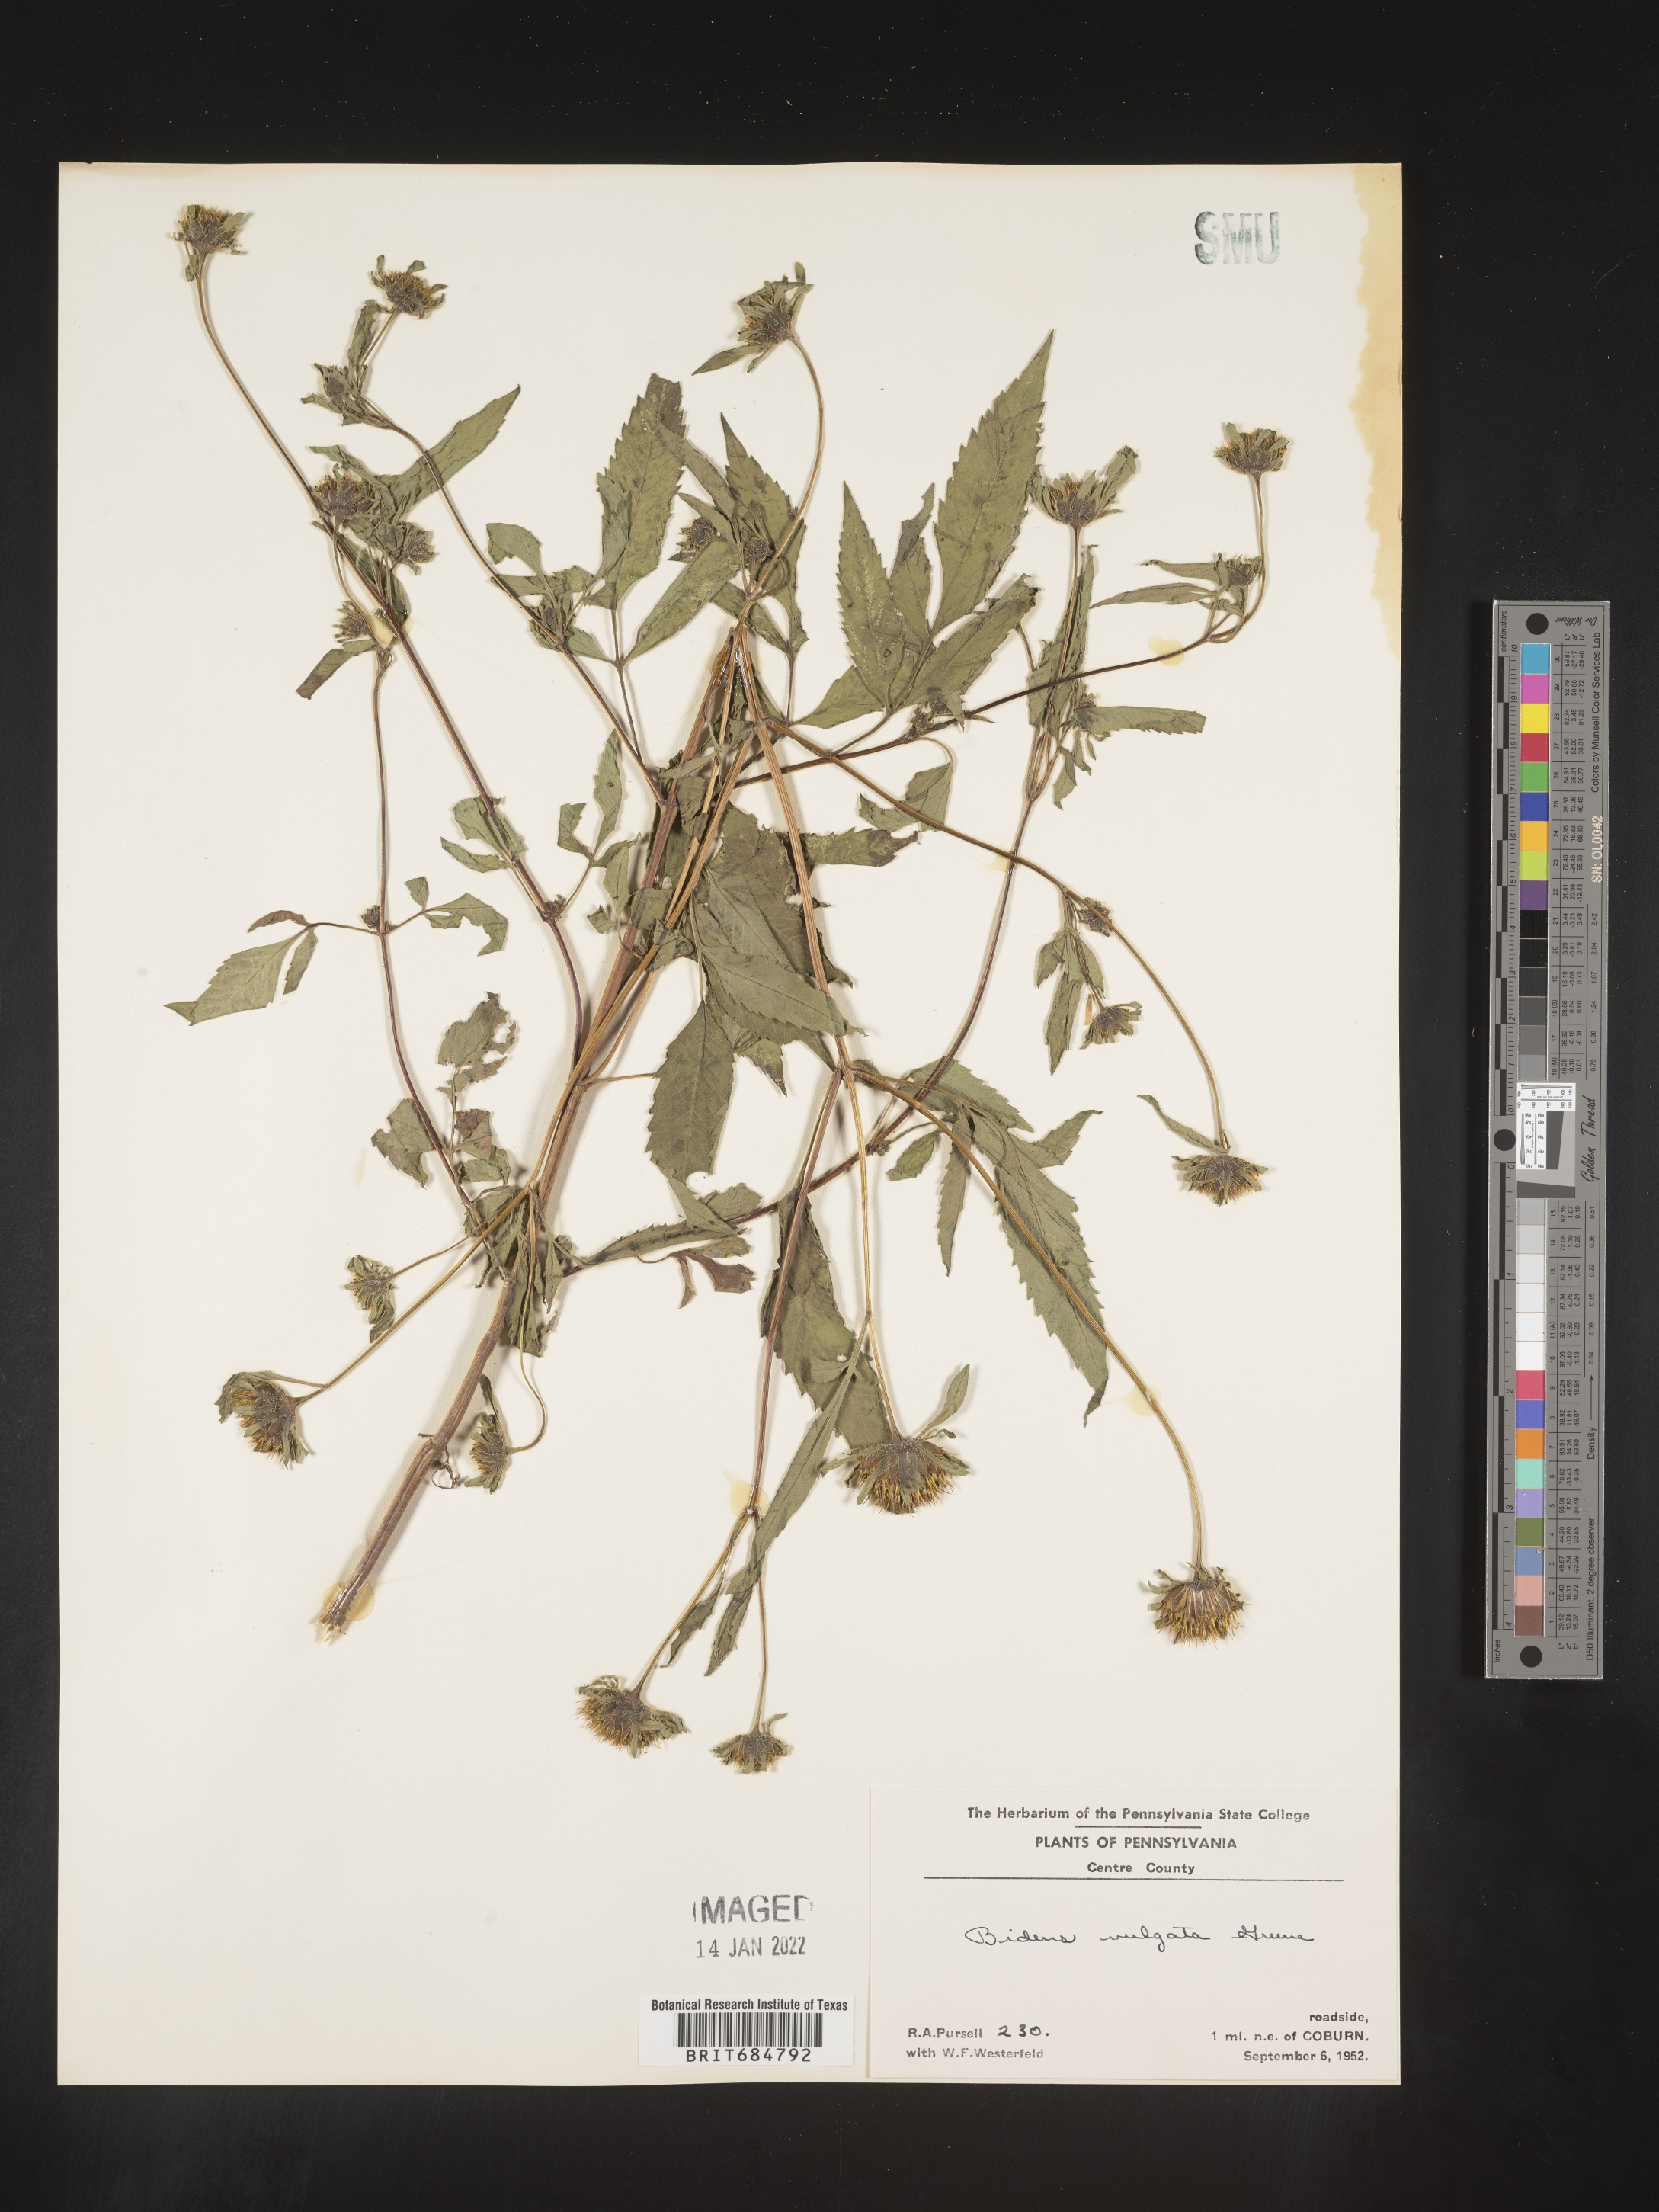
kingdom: Plantae
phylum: Tracheophyta
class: Magnoliopsida
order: Asterales
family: Asteraceae
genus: Bidens
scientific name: Bidens vulgata
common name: Tall beggarticks
